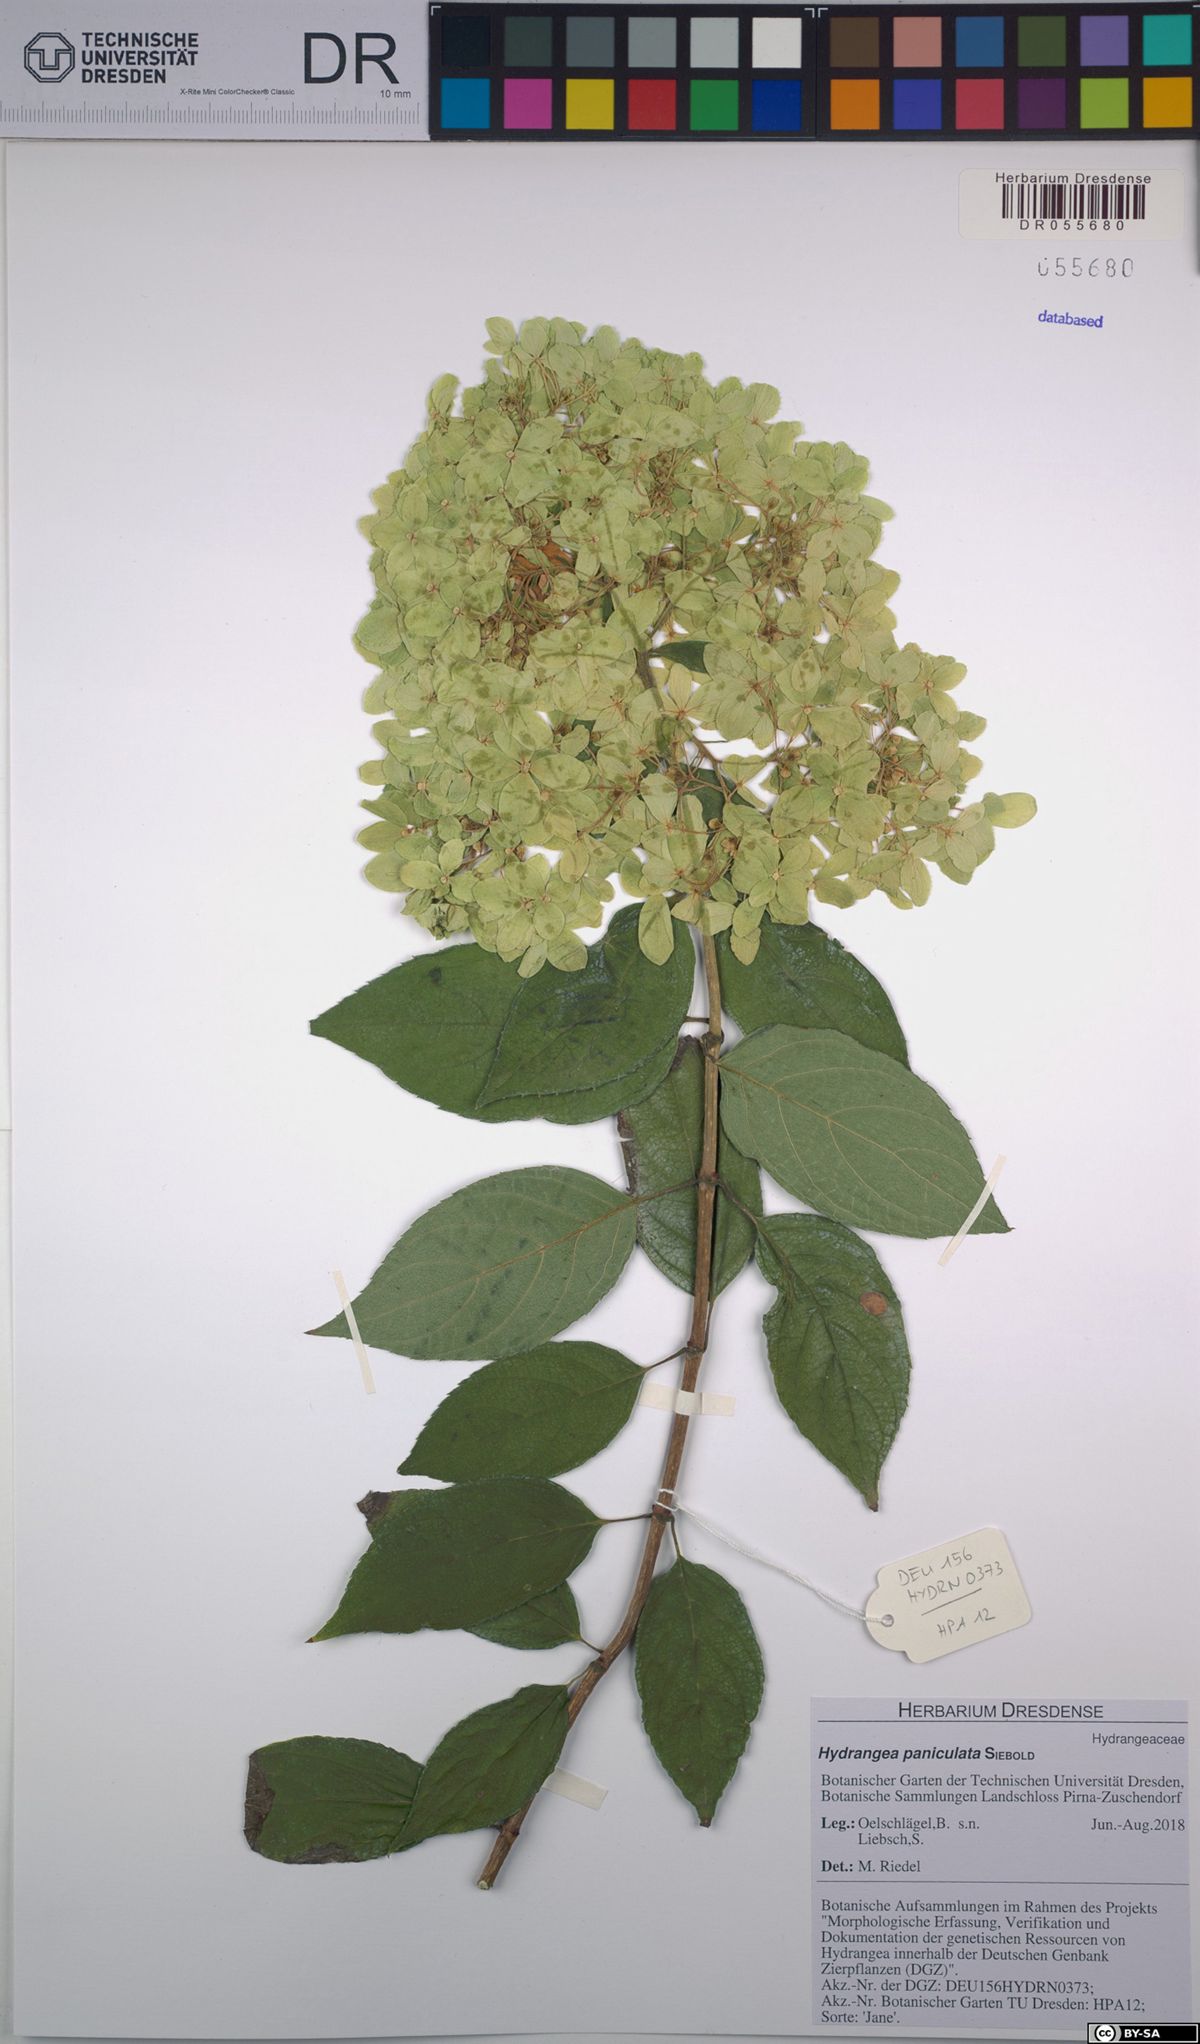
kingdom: Plantae
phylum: Tracheophyta
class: Magnoliopsida
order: Cornales
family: Hydrangeaceae
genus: Hydrangea
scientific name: Hydrangea paniculata
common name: Panicled hydrangea
